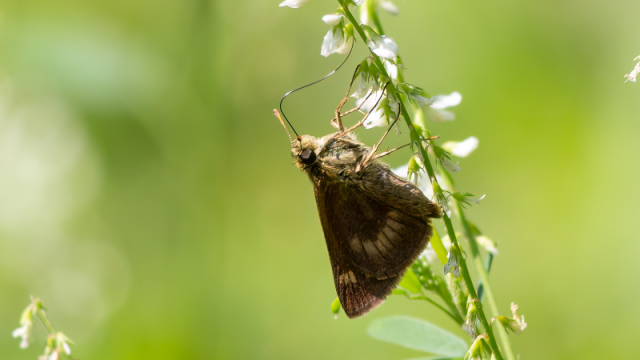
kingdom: Animalia
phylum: Arthropoda
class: Insecta
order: Lepidoptera
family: Hesperiidae
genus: Euphyes
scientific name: Euphyes conspicua
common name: Black Dash
